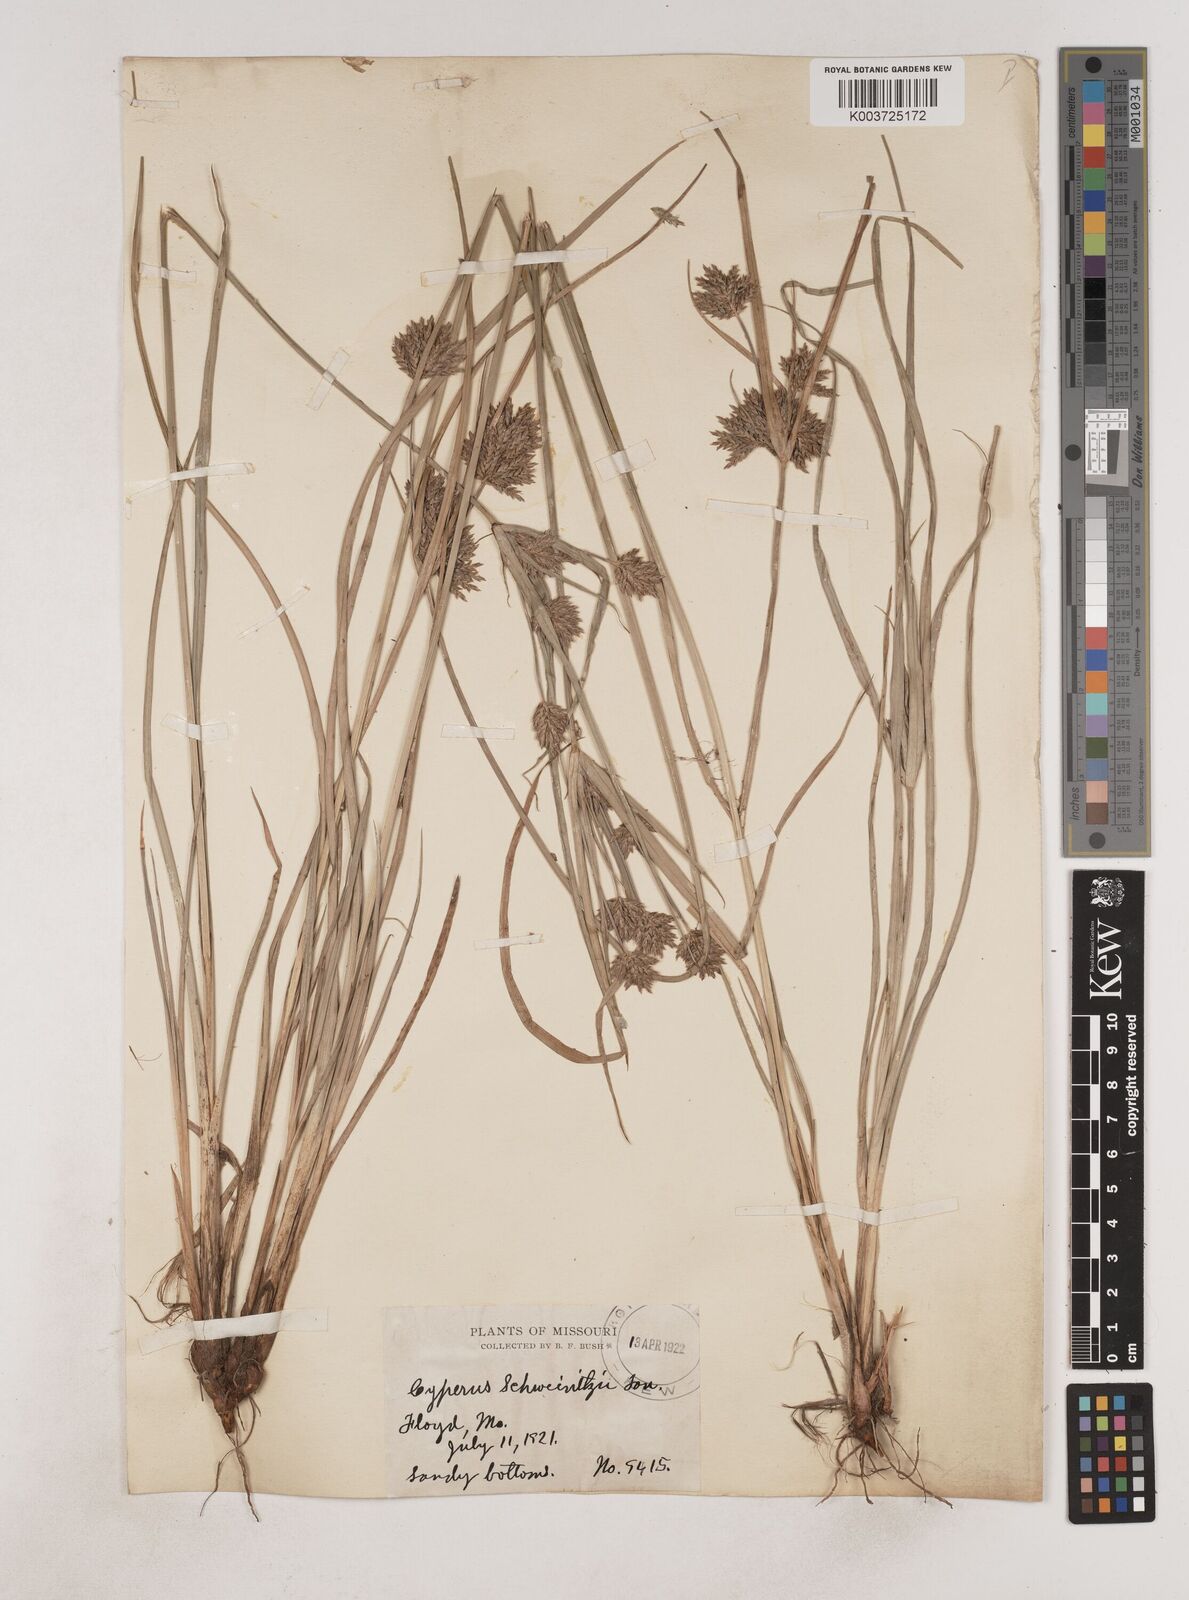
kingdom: Plantae
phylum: Tracheophyta
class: Liliopsida
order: Poales
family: Cyperaceae
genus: Cyperus
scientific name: Cyperus schweinitzii
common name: Schweinitz's cyperus
